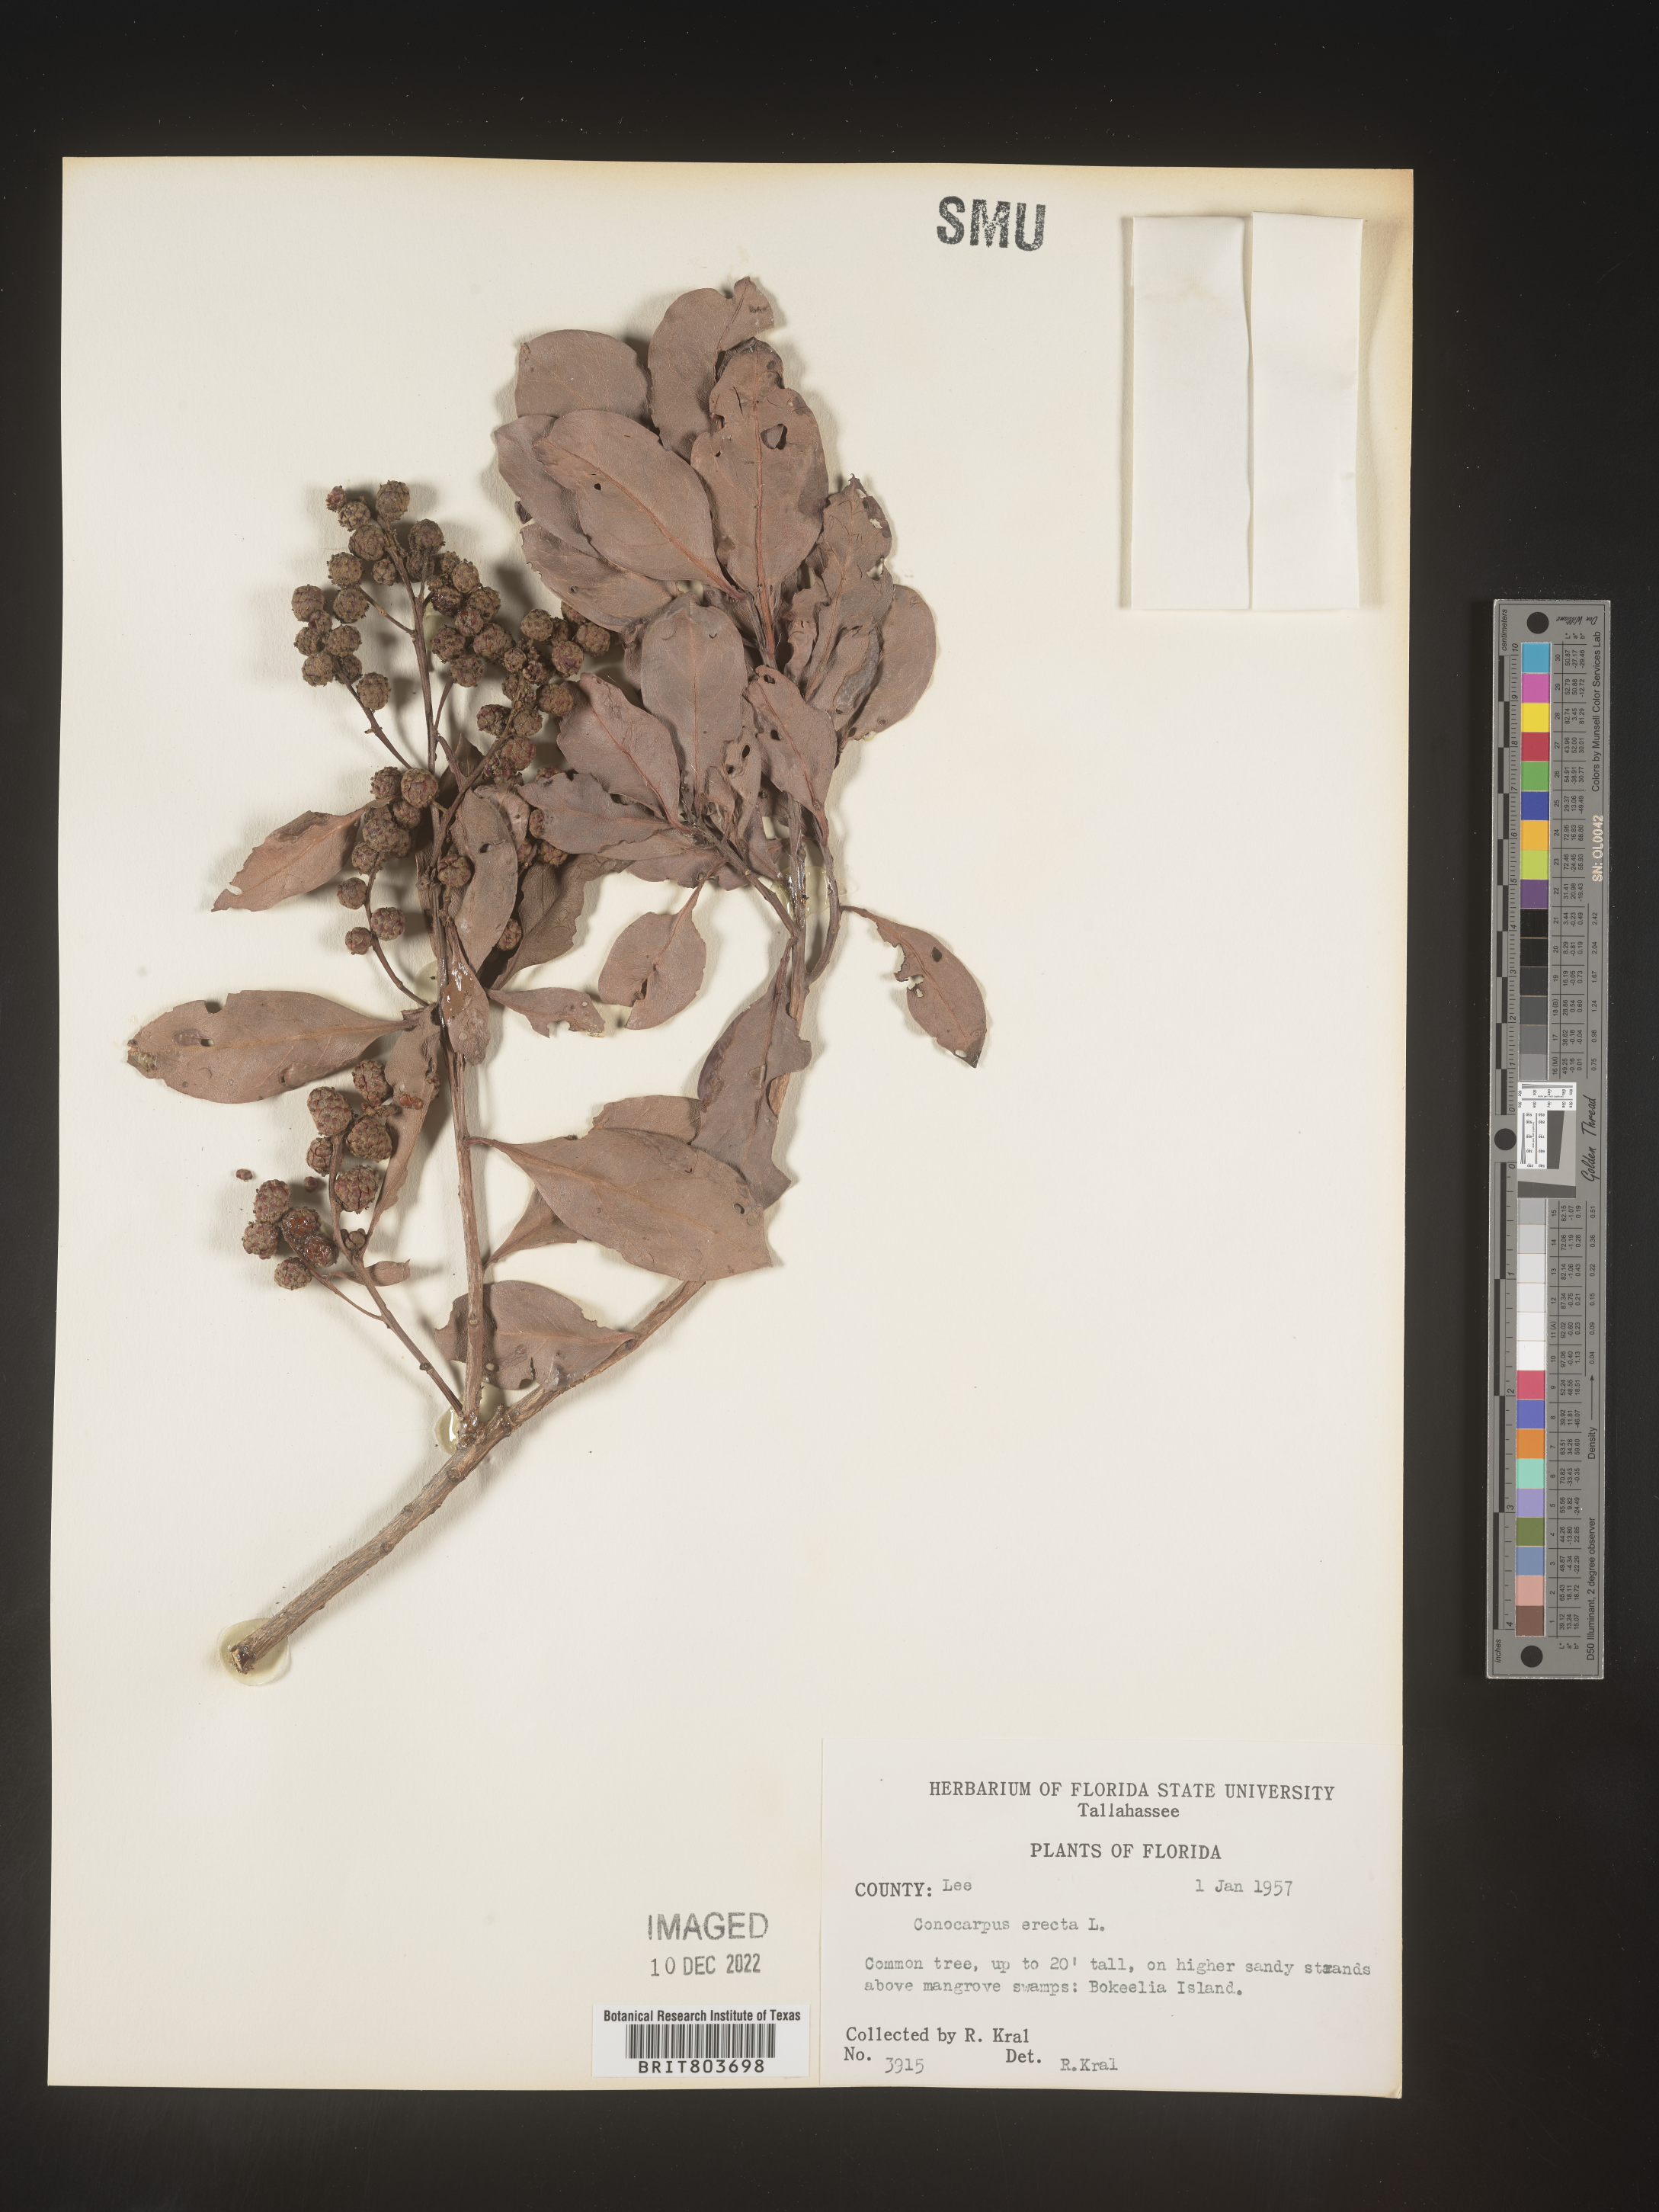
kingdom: Plantae
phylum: Tracheophyta
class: Magnoliopsida
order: Myrtales
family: Combretaceae
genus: Conocarpus
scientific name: Conocarpus erectus
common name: Button mangrove
